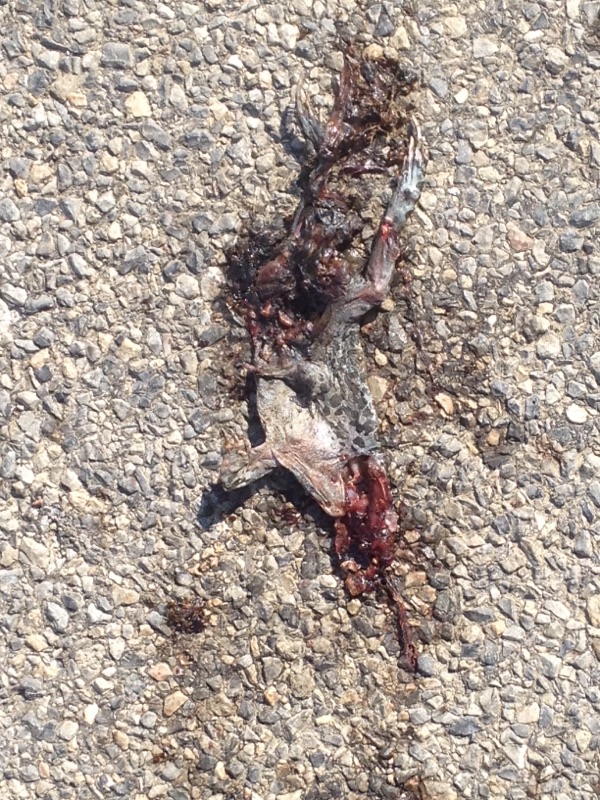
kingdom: Animalia
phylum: Chordata
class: Amphibia
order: Anura
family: Bufonidae
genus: Bufotes
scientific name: Bufotes viridis
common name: European green toad
